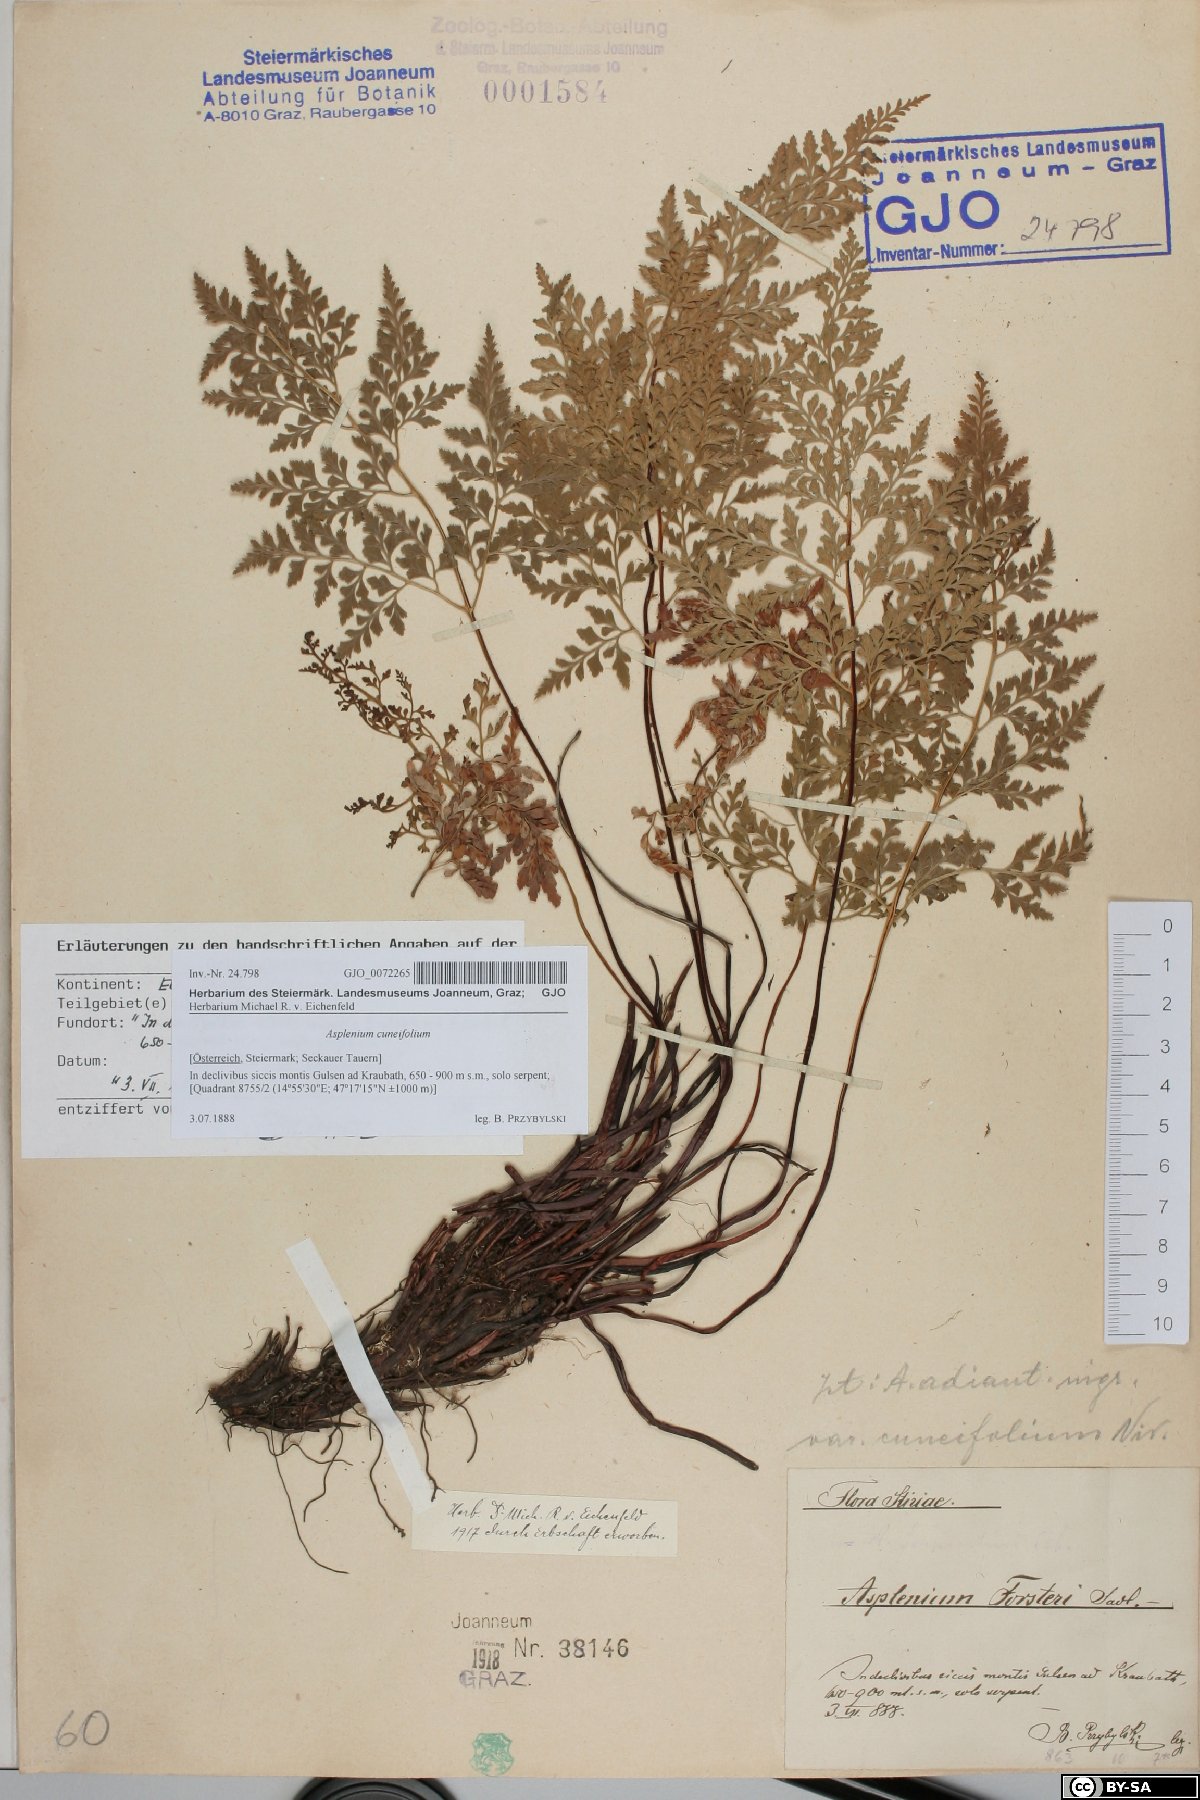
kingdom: Plantae
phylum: Tracheophyta
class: Polypodiopsida
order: Polypodiales
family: Aspleniaceae
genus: Asplenium
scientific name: Asplenium cuneifolium
